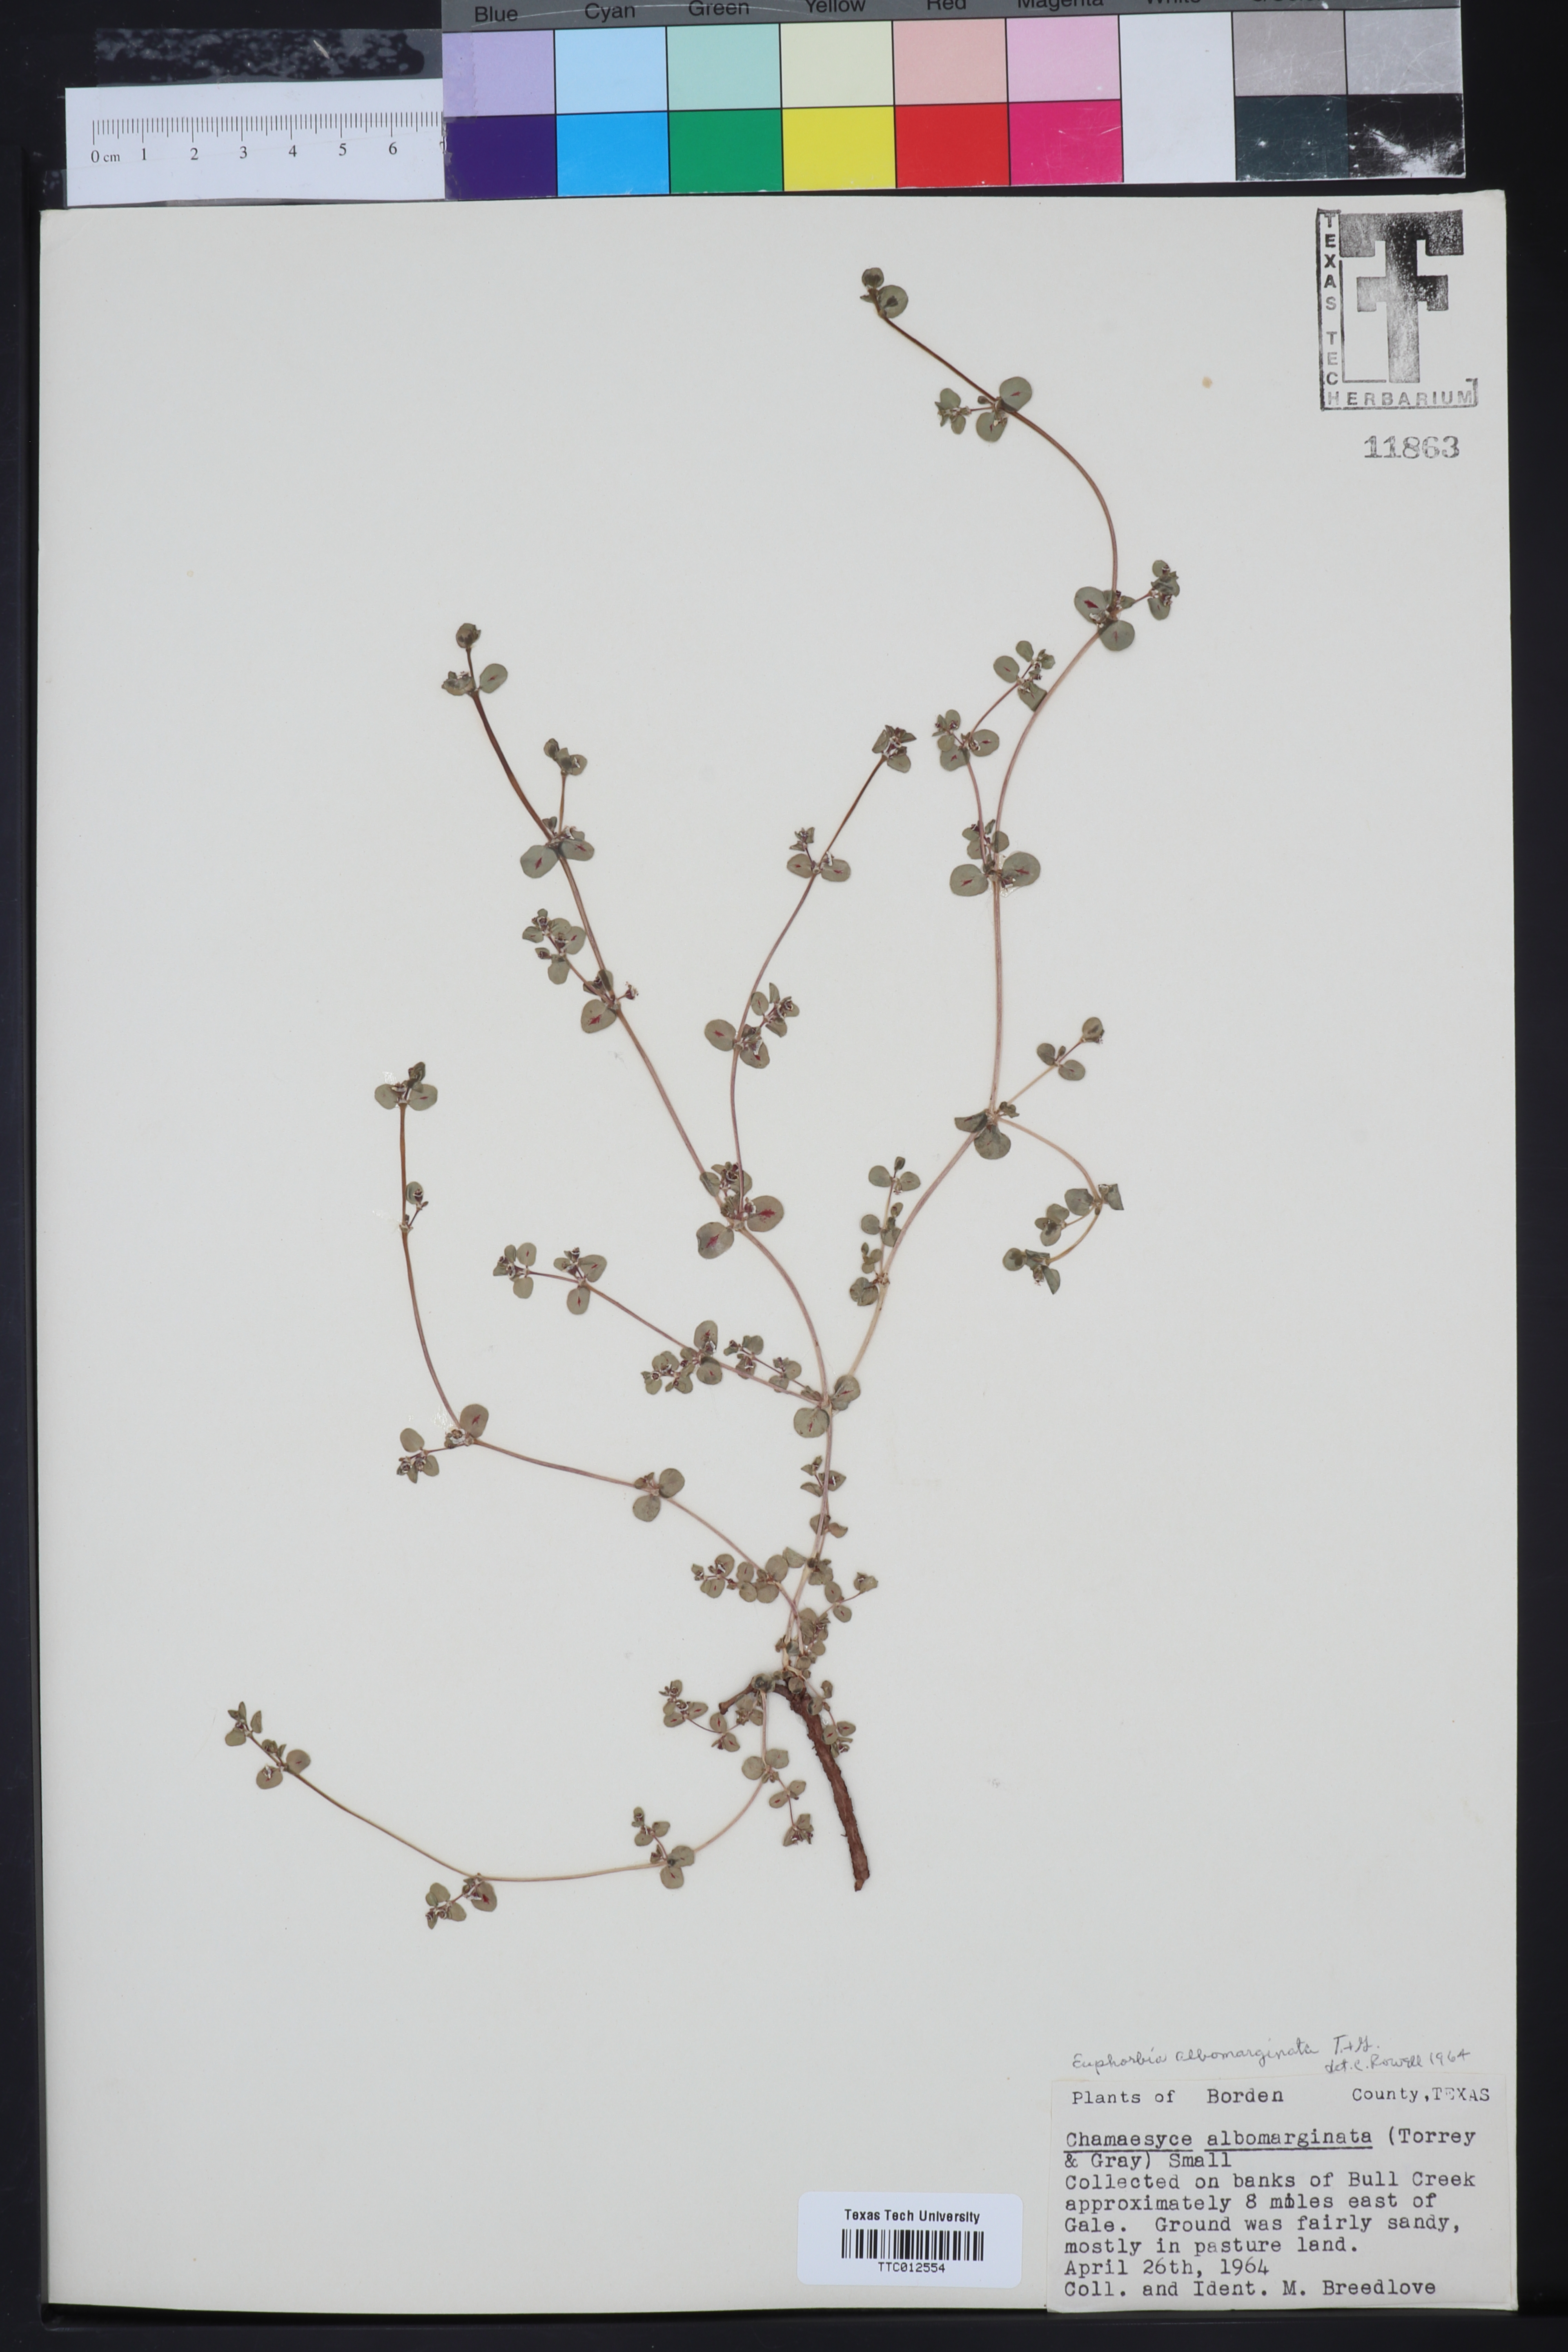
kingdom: Plantae
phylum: Tracheophyta
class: Magnoliopsida
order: Malpighiales
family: Euphorbiaceae
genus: Euphorbia
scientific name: Euphorbia albomarginata
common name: Whitemargin sandmat
